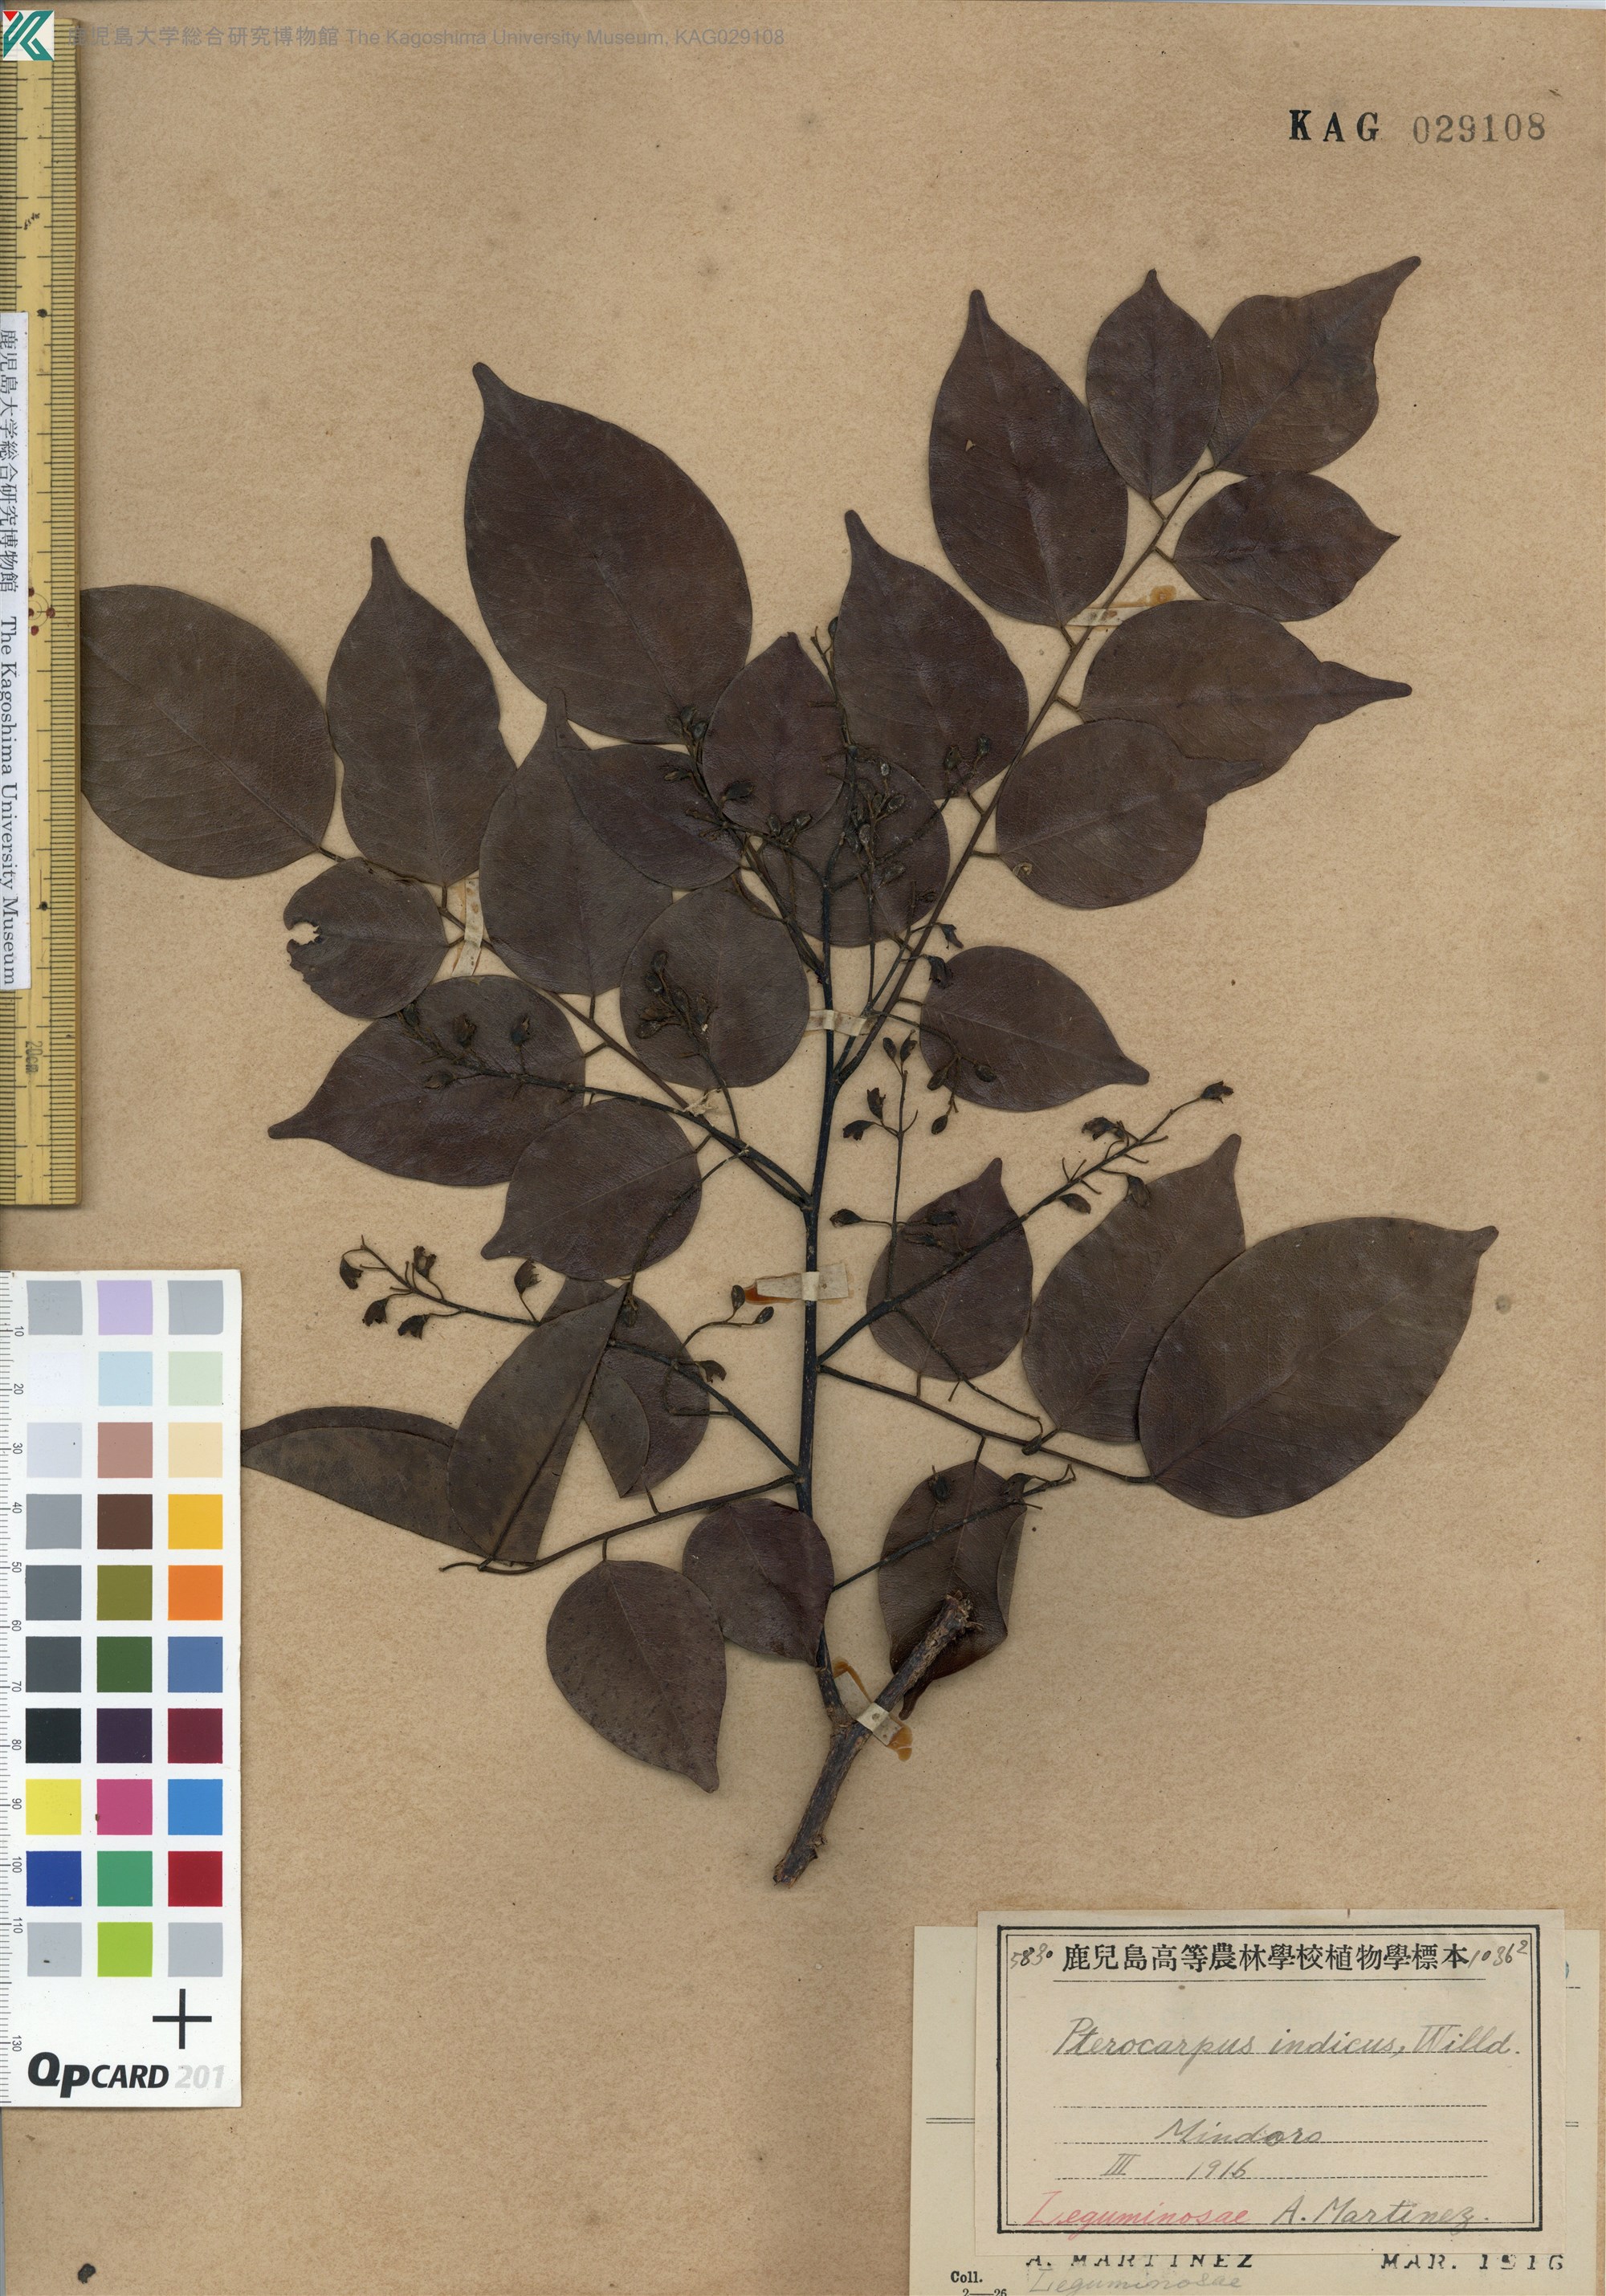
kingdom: Plantae
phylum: Tracheophyta
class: Magnoliopsida
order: Fabales
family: Fabaceae
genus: Pterocarpus
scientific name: Pterocarpus indicus
